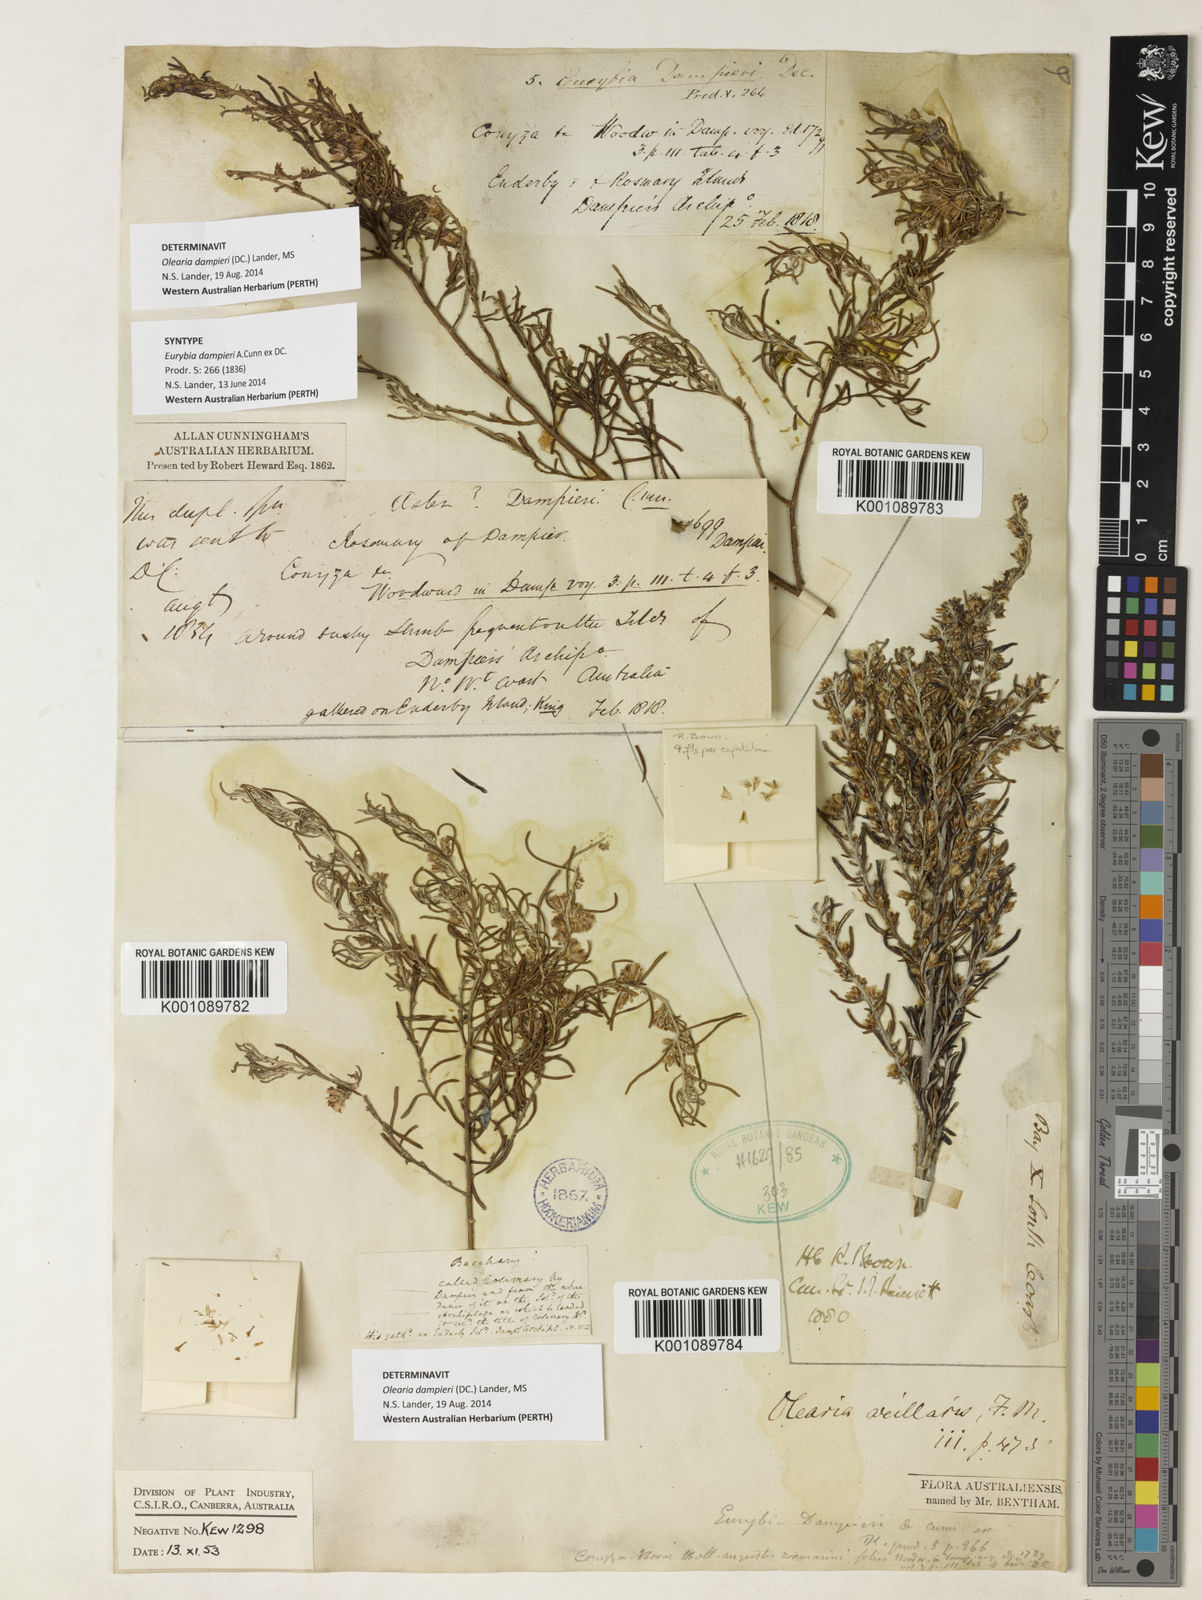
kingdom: Plantae
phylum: Tracheophyta
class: Magnoliopsida
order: Asterales
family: Asteraceae
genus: Olearia
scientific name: Olearia
